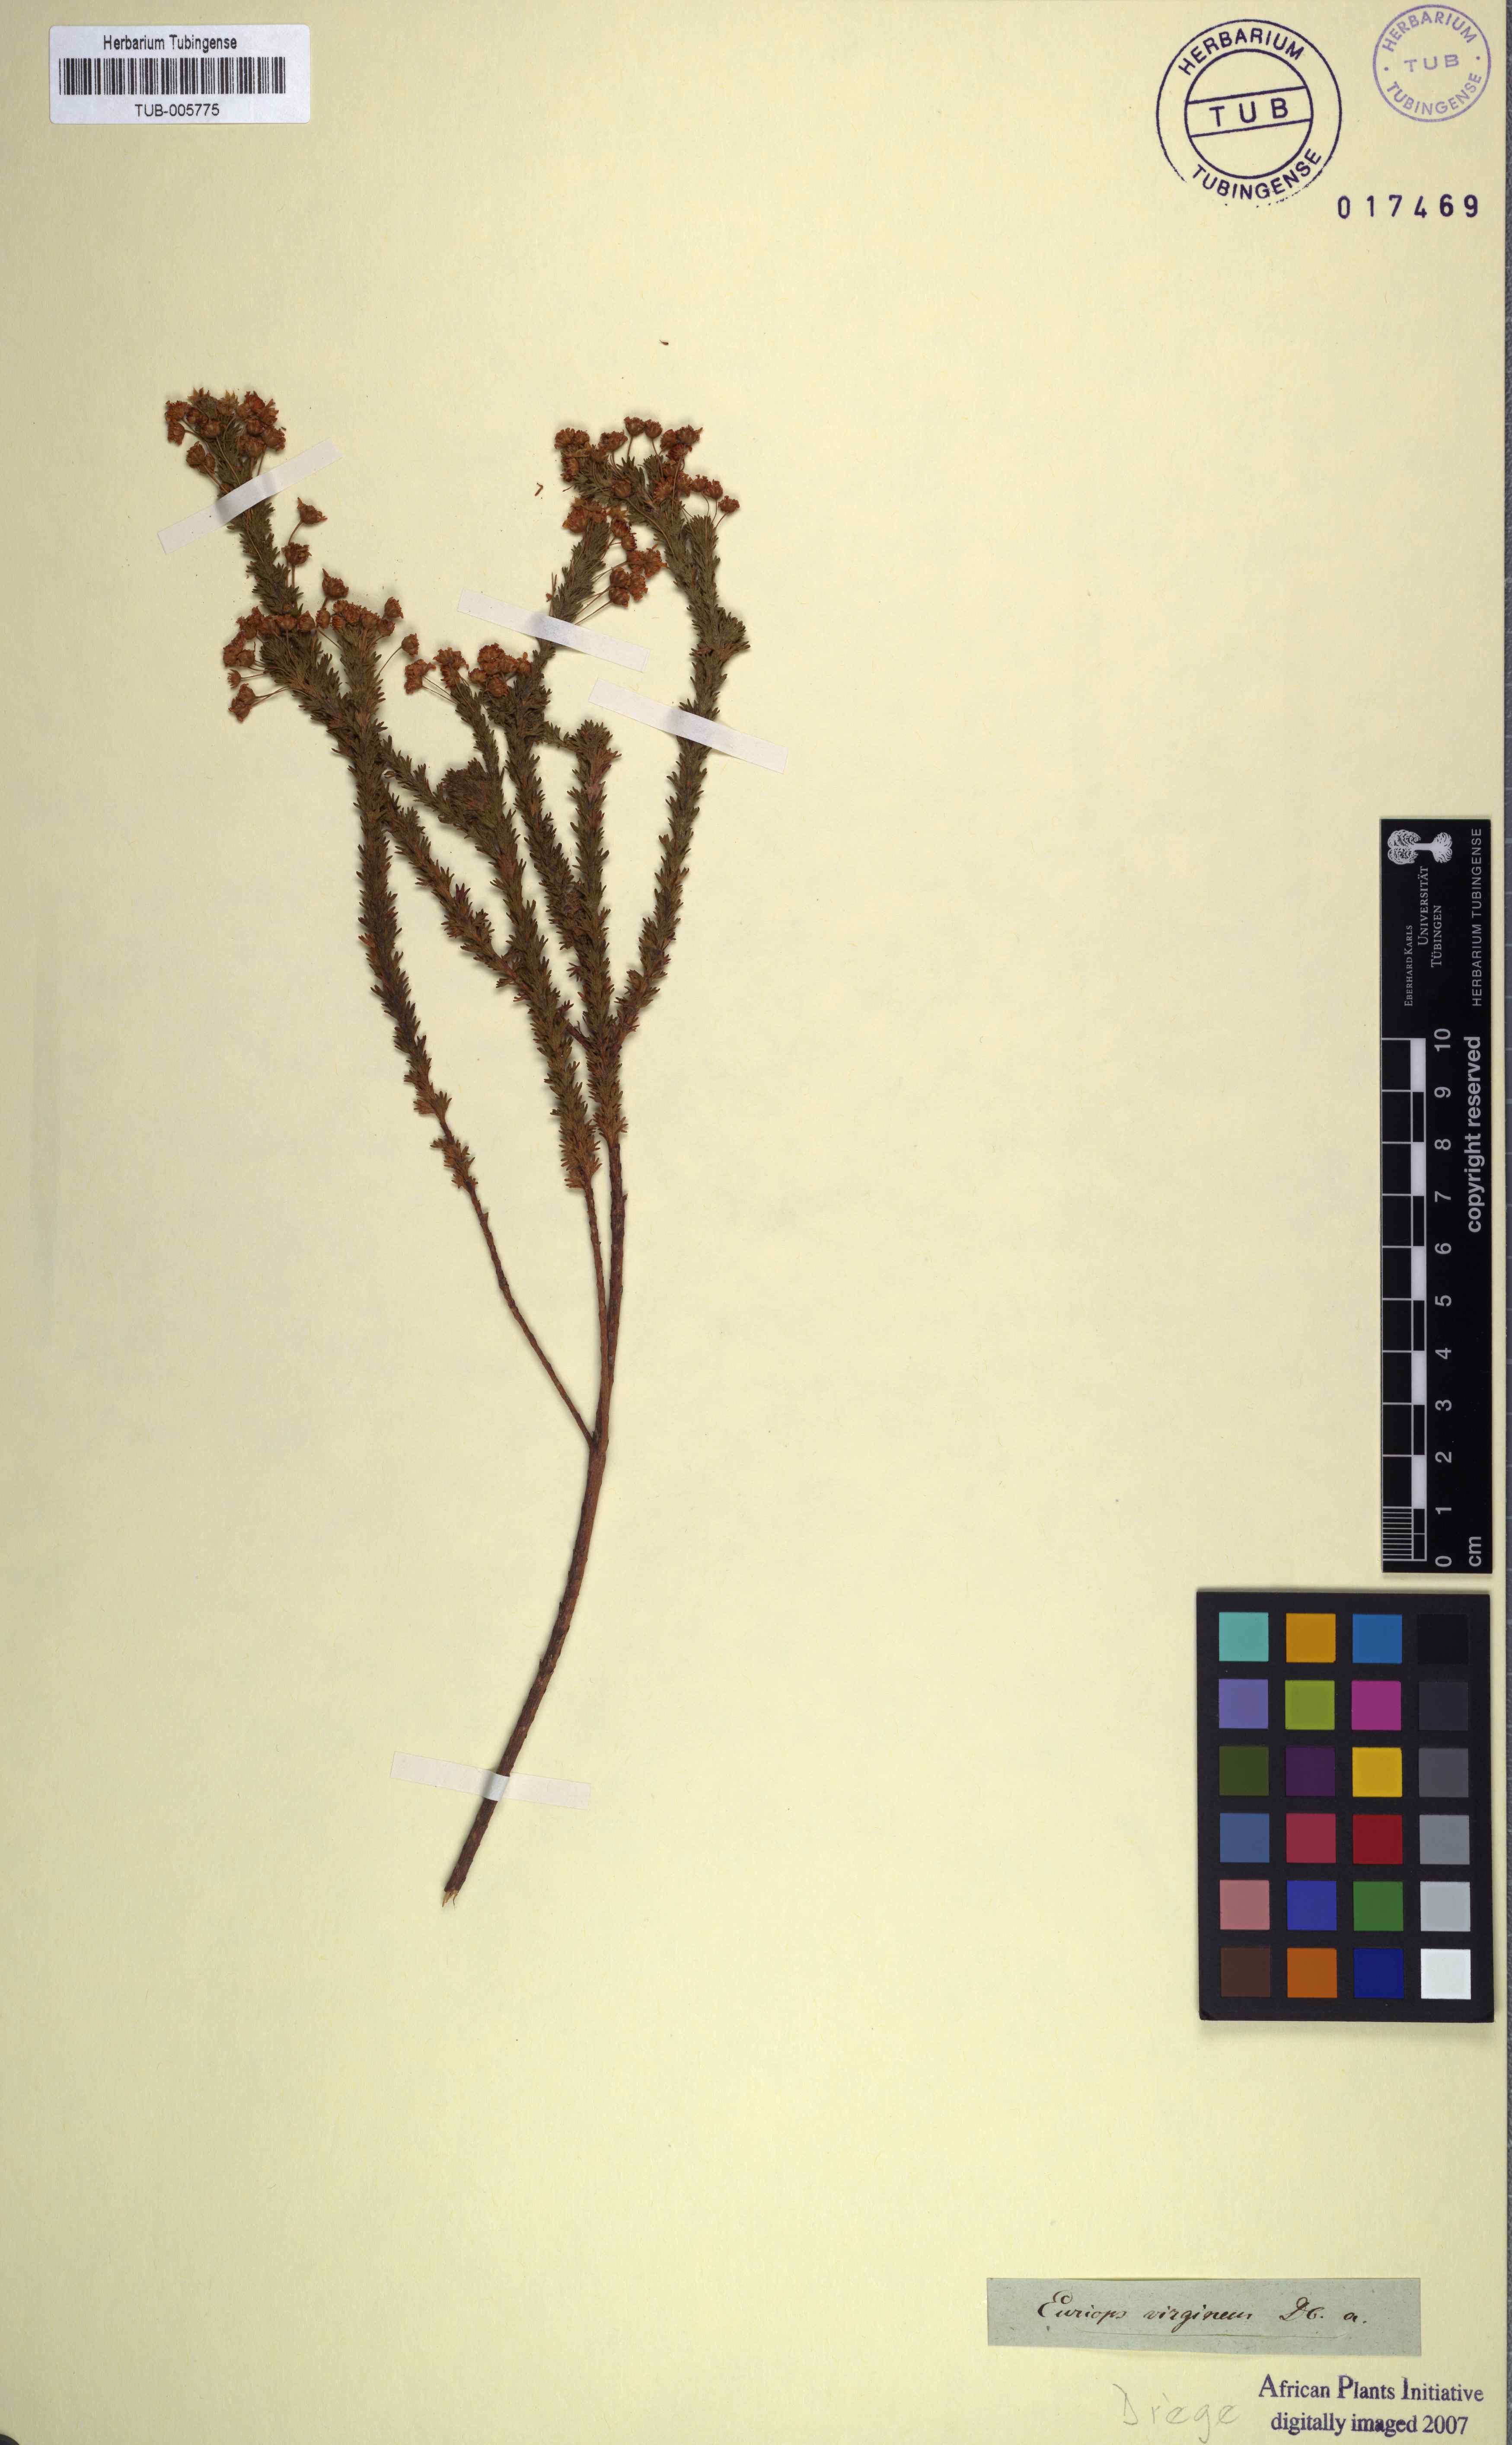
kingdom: Plantae
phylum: Tracheophyta
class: Magnoliopsida
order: Asterales
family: Asteraceae
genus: Euryops
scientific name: Euryops virgineus
